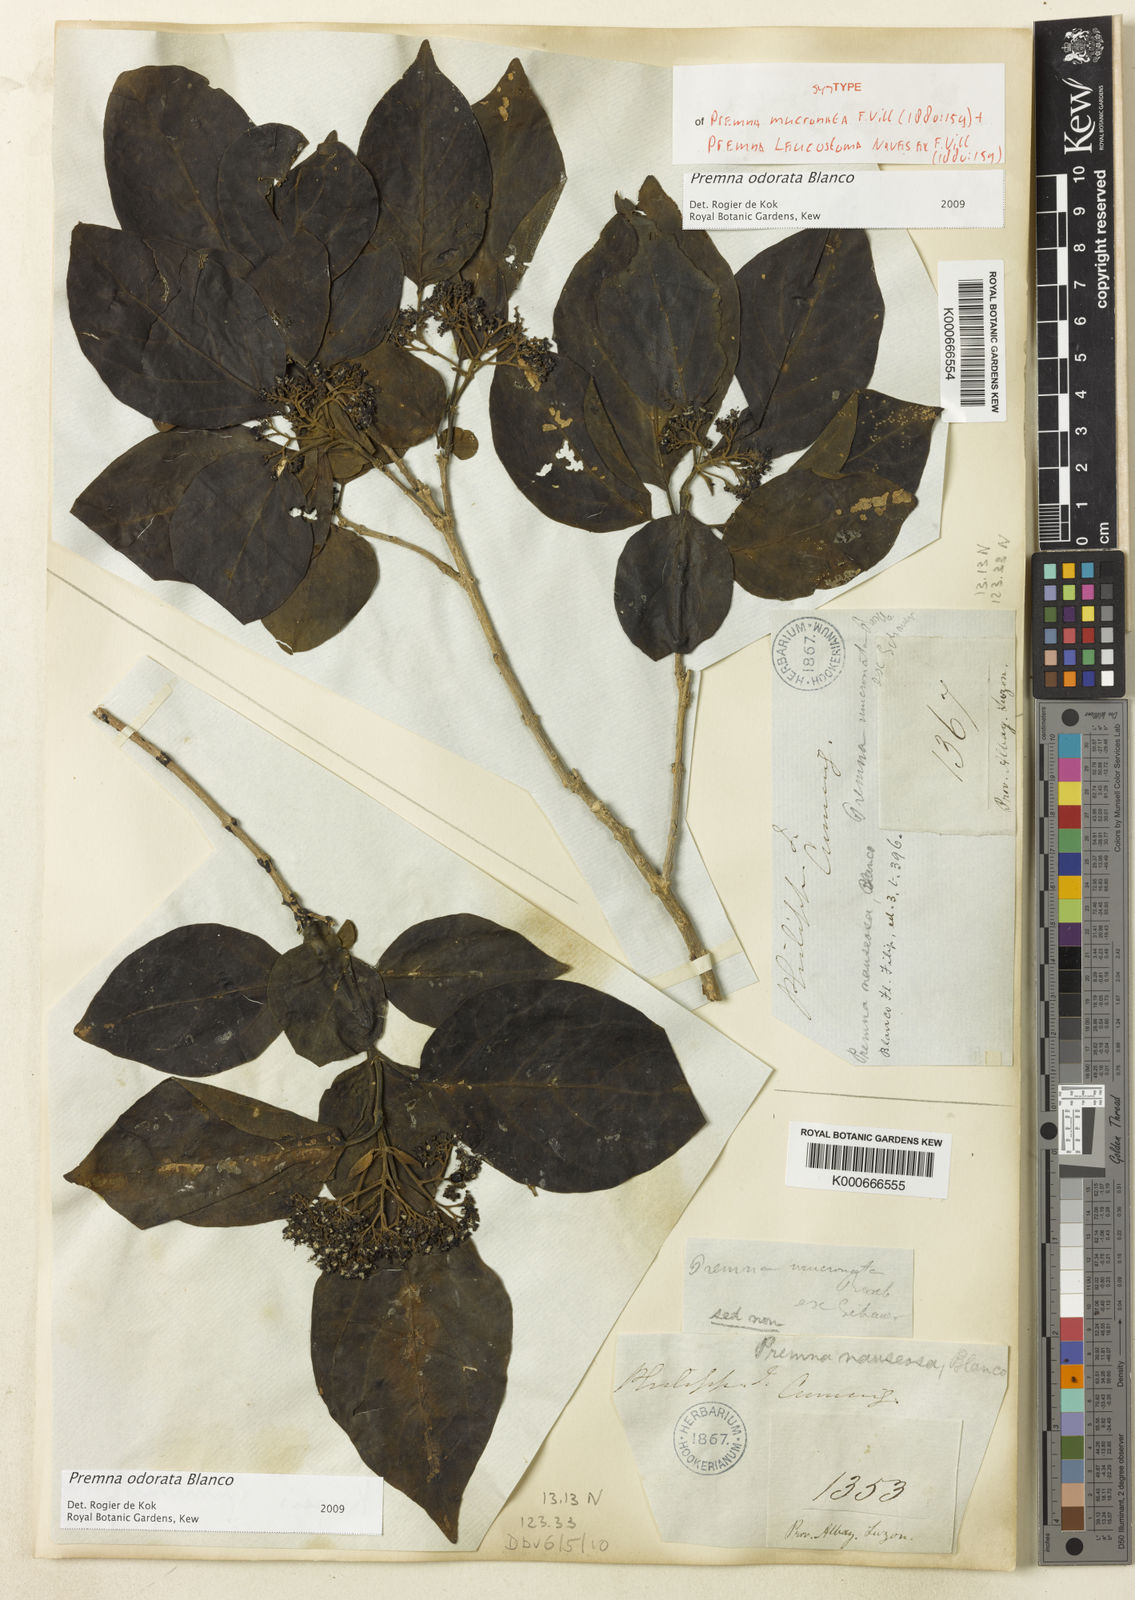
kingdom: Plantae
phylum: Tracheophyta
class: Magnoliopsida
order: Lamiales
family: Lamiaceae
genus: Premna
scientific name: Premna odorata
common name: Fragrant premna
